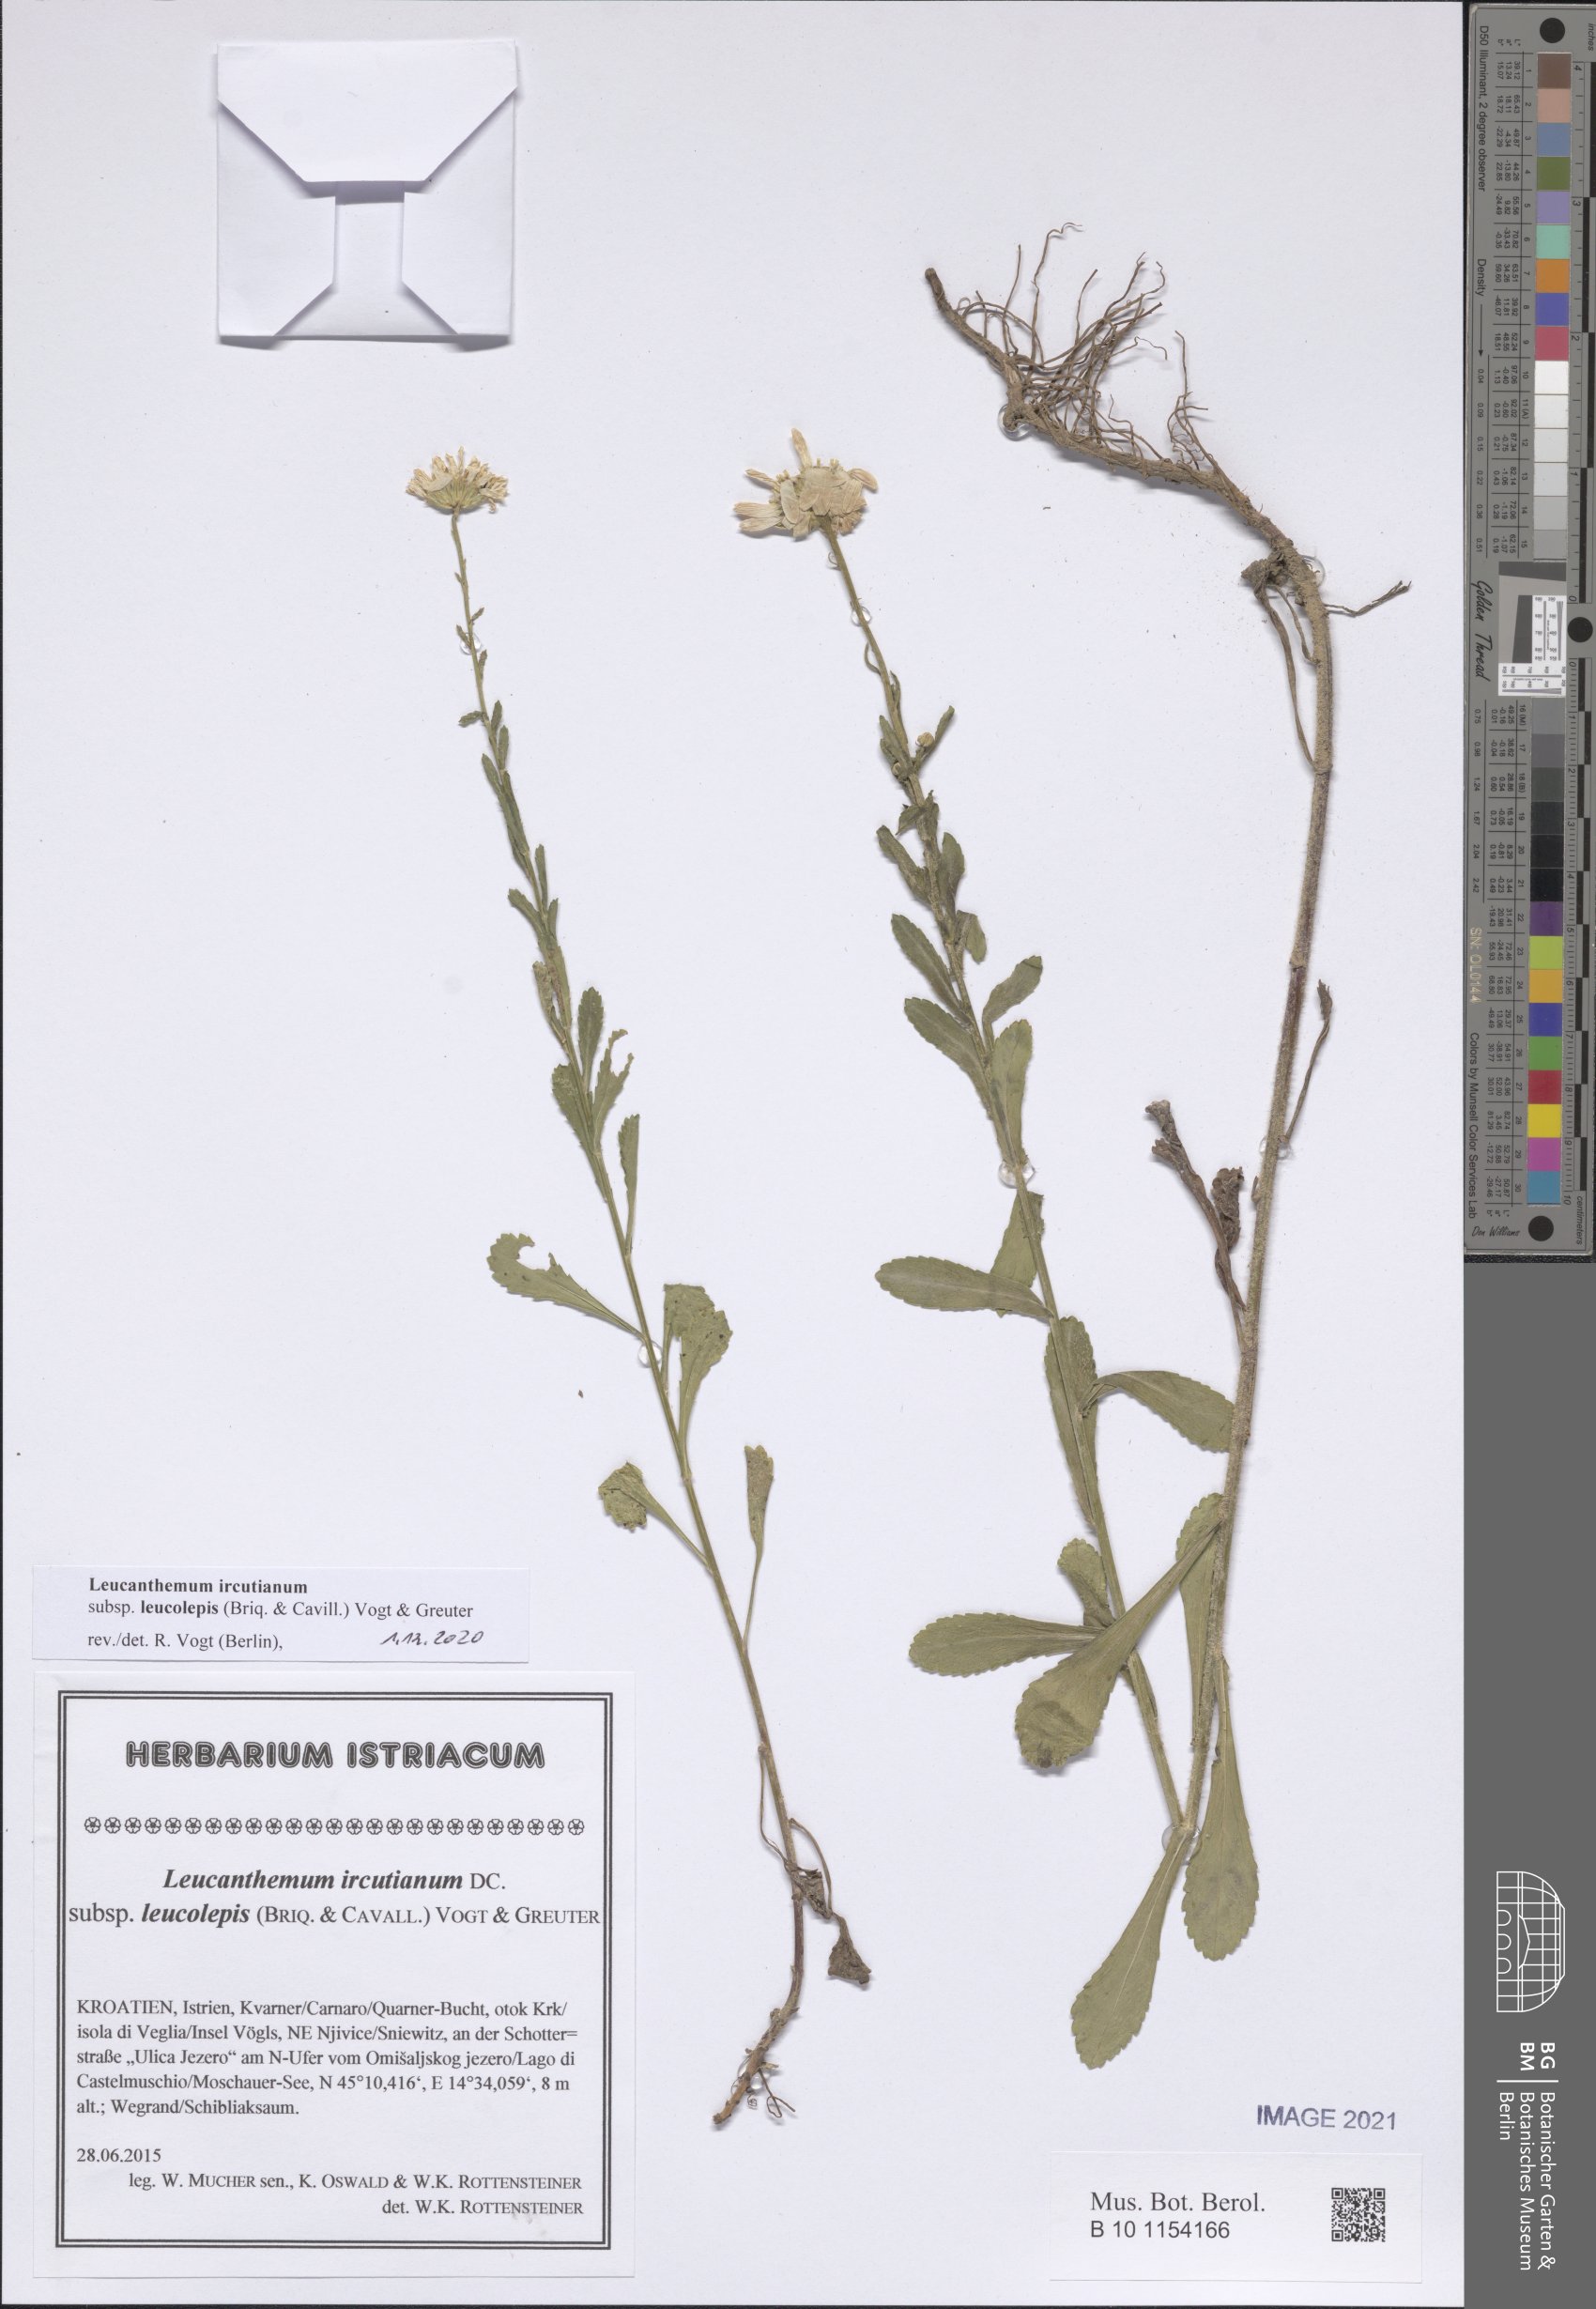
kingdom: Plantae
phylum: Tracheophyta
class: Magnoliopsida
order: Asterales
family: Asteraceae
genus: Leucanthemum
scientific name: Leucanthemum ircutianum
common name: Daisy
